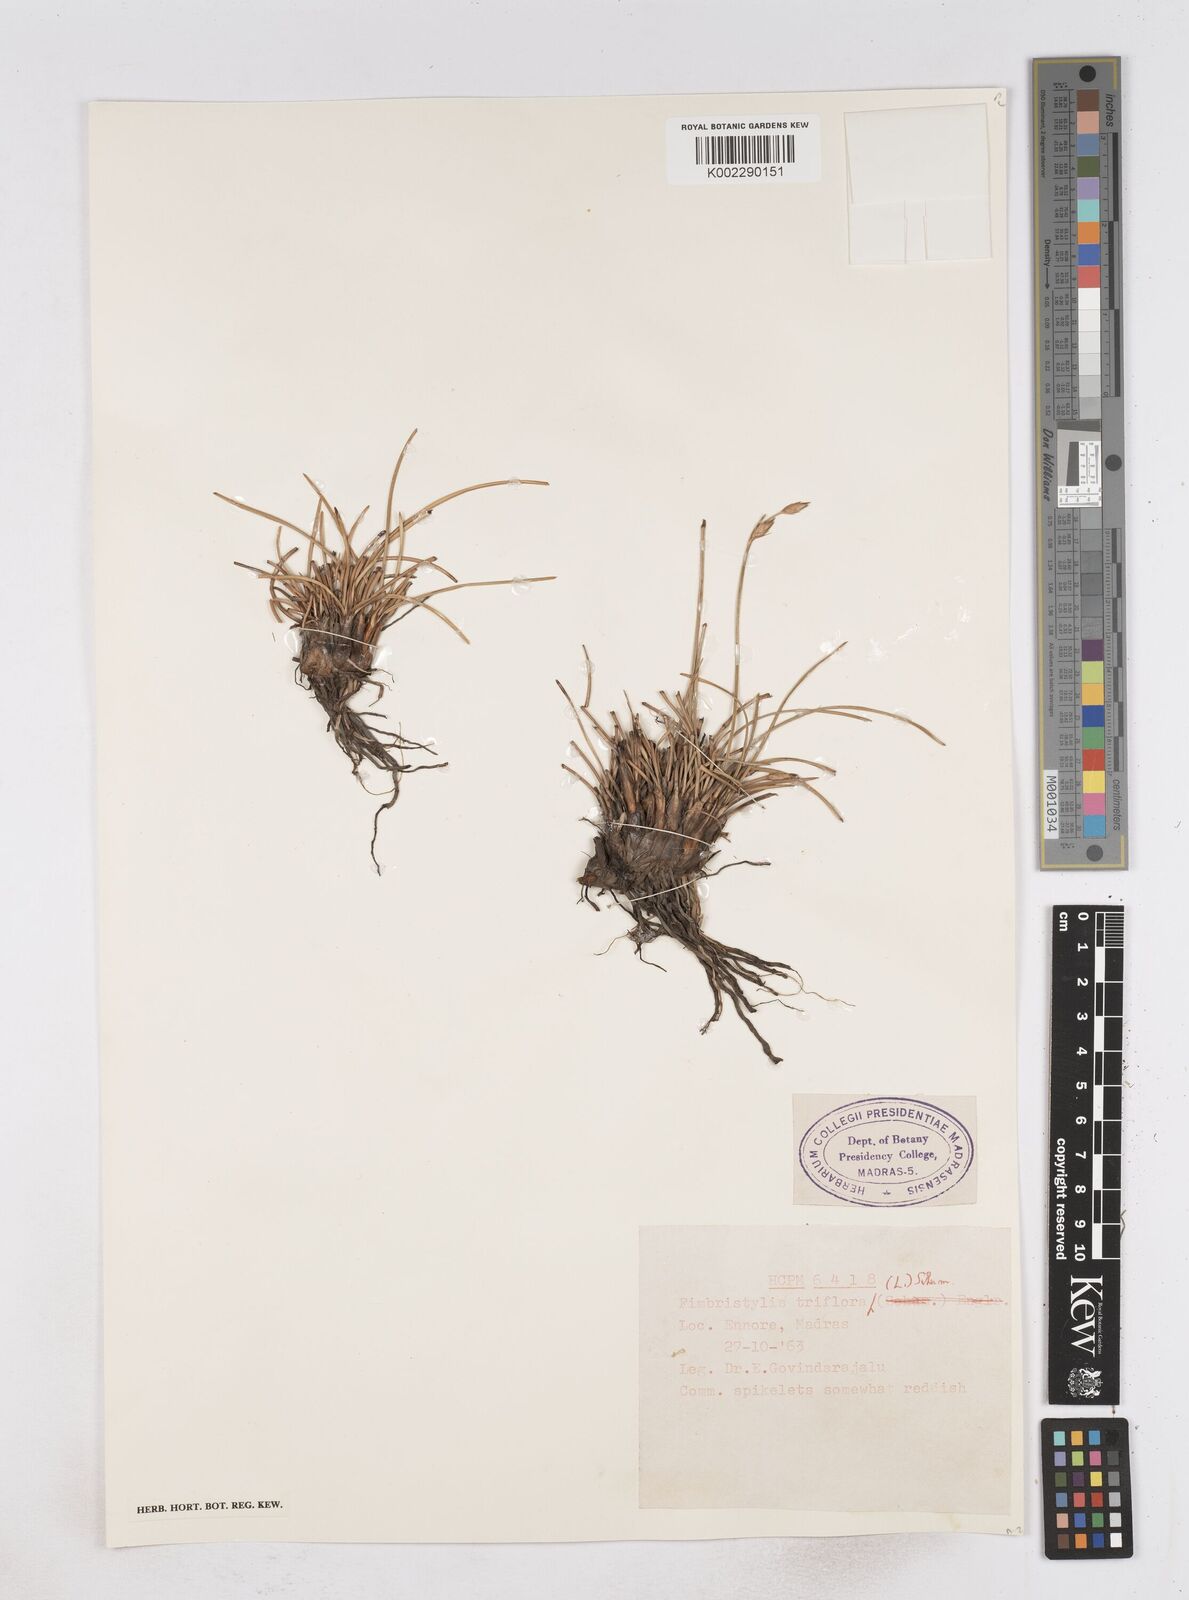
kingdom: Plantae
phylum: Tracheophyta
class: Liliopsida
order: Poales
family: Cyperaceae
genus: Abildgaardia
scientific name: Abildgaardia triflora
